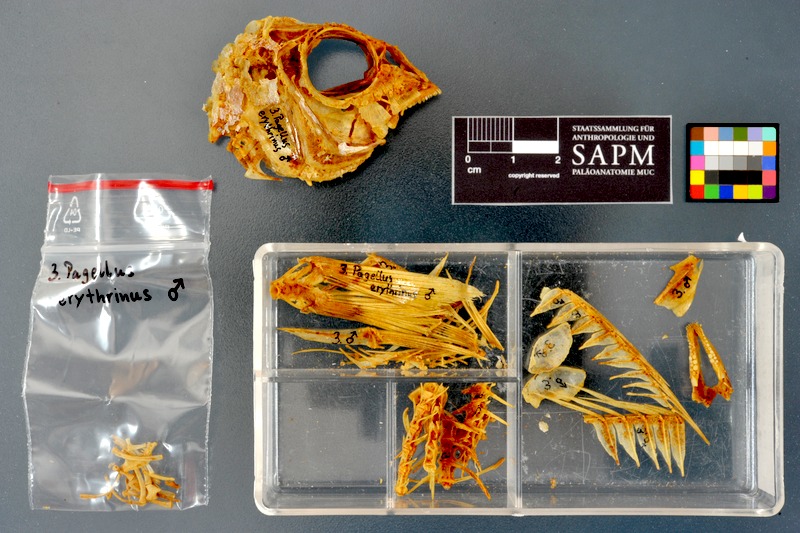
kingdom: Animalia
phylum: Chordata
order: Perciformes
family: Sparidae
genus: Pagellus
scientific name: Pagellus erythrinus
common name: Pandora
